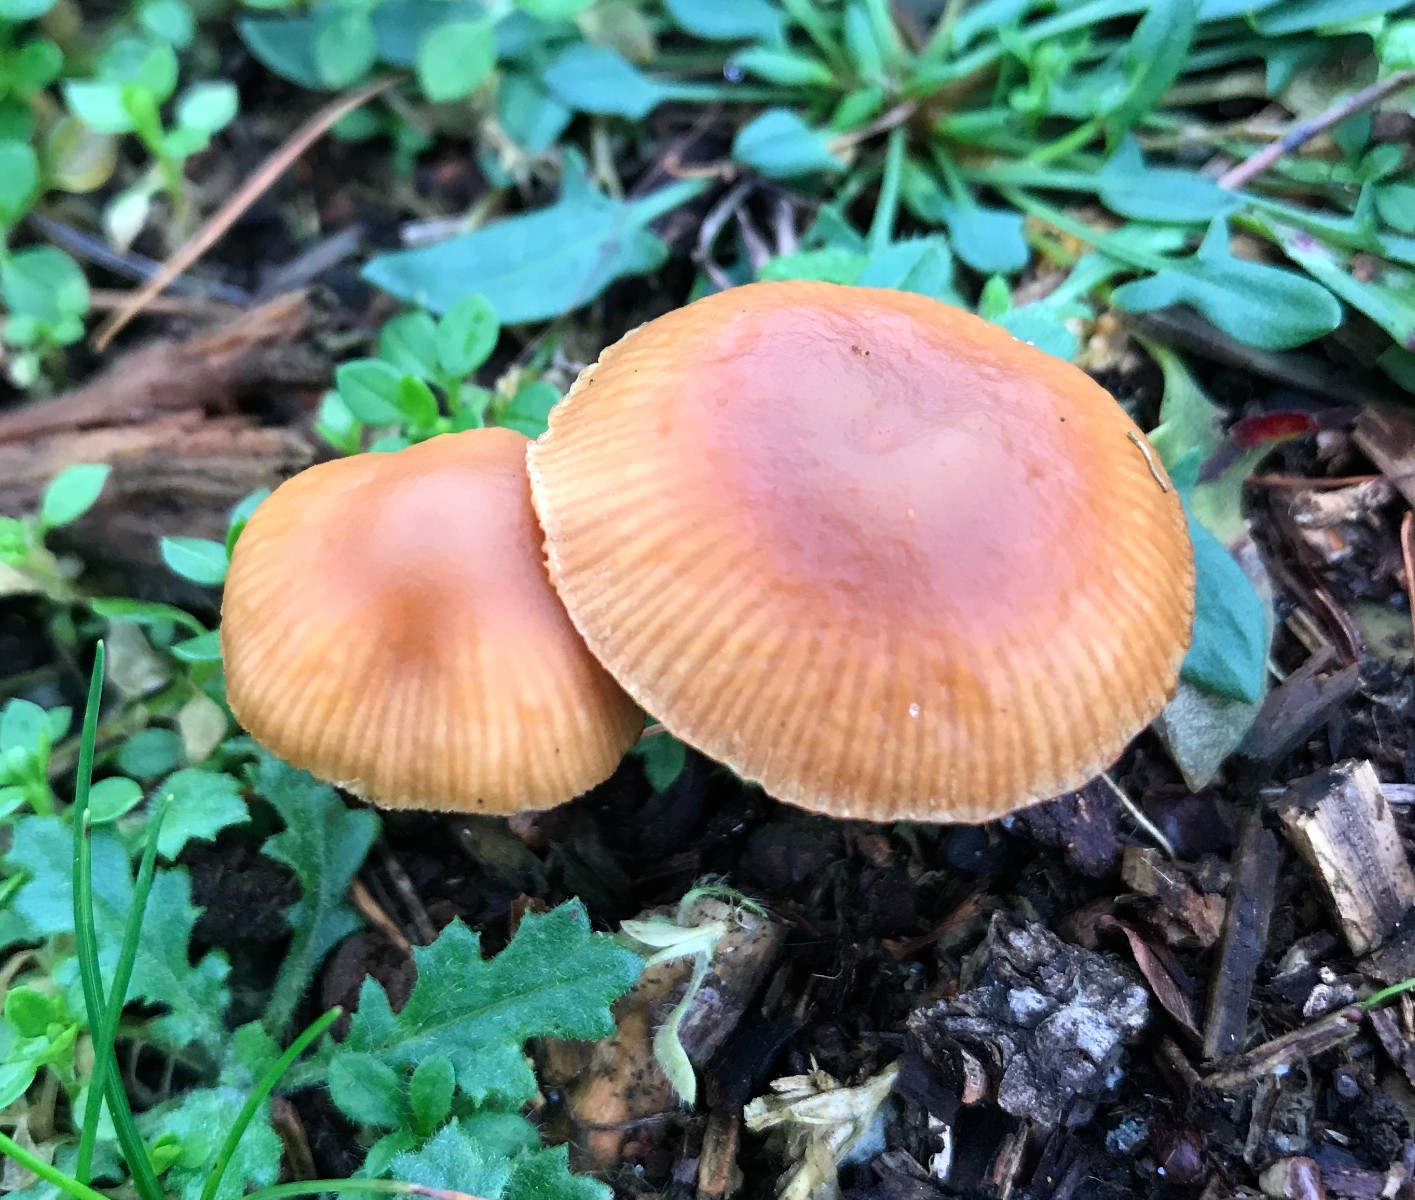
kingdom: Fungi
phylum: Basidiomycota
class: Agaricomycetes
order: Agaricales
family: Hymenogastraceae
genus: Galerina
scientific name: Galerina marginata
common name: randbæltet hjelmhat
